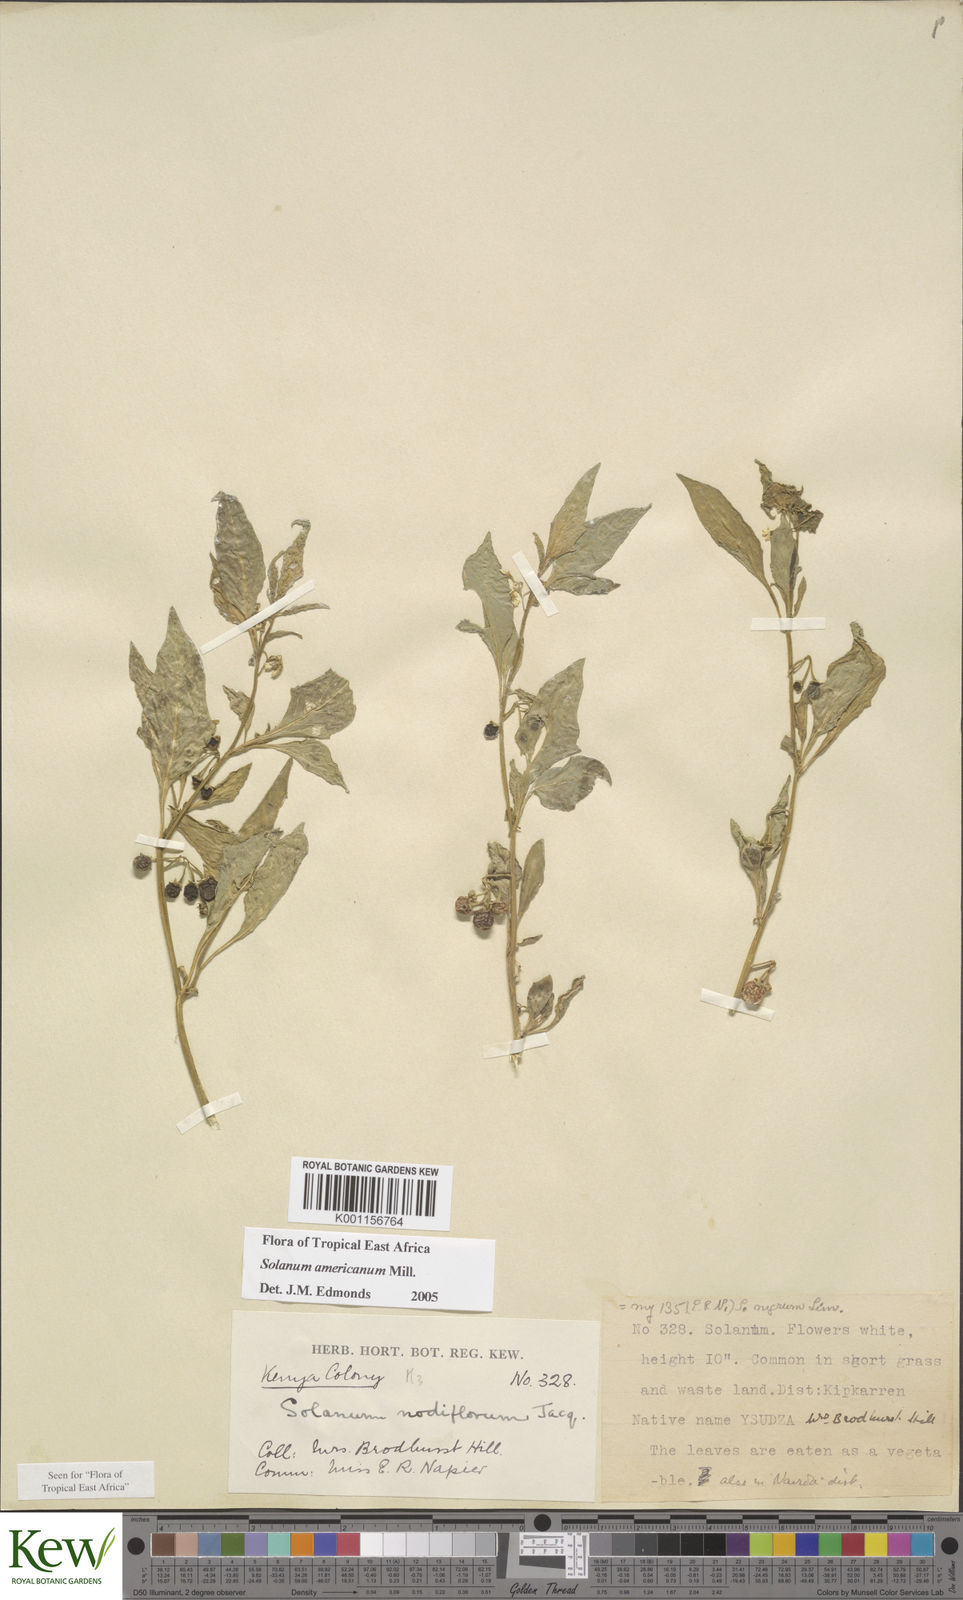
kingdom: Plantae
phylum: Tracheophyta
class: Magnoliopsida
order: Solanales
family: Solanaceae
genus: Solanum
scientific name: Solanum americanum
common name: American black nightshade
